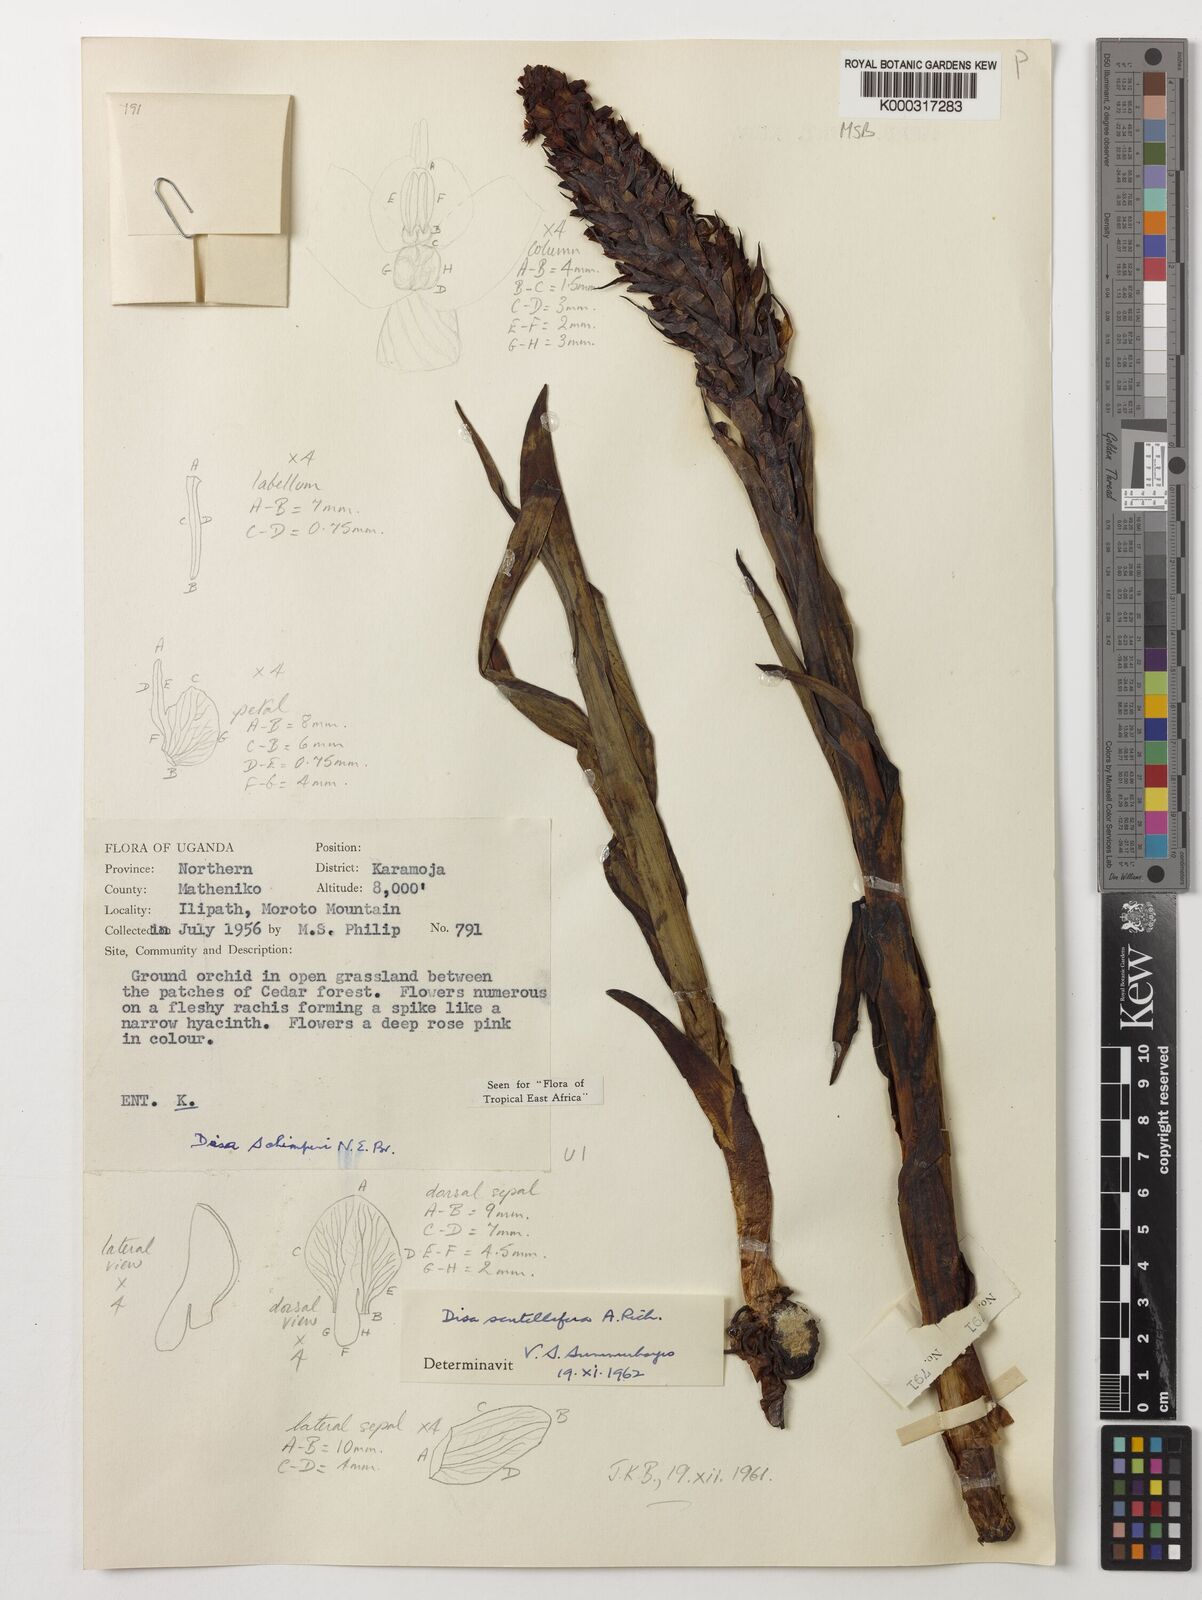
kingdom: Plantae
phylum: Tracheophyta
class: Liliopsida
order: Asparagales
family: Orchidaceae
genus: Disa
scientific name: Disa scutellifera
